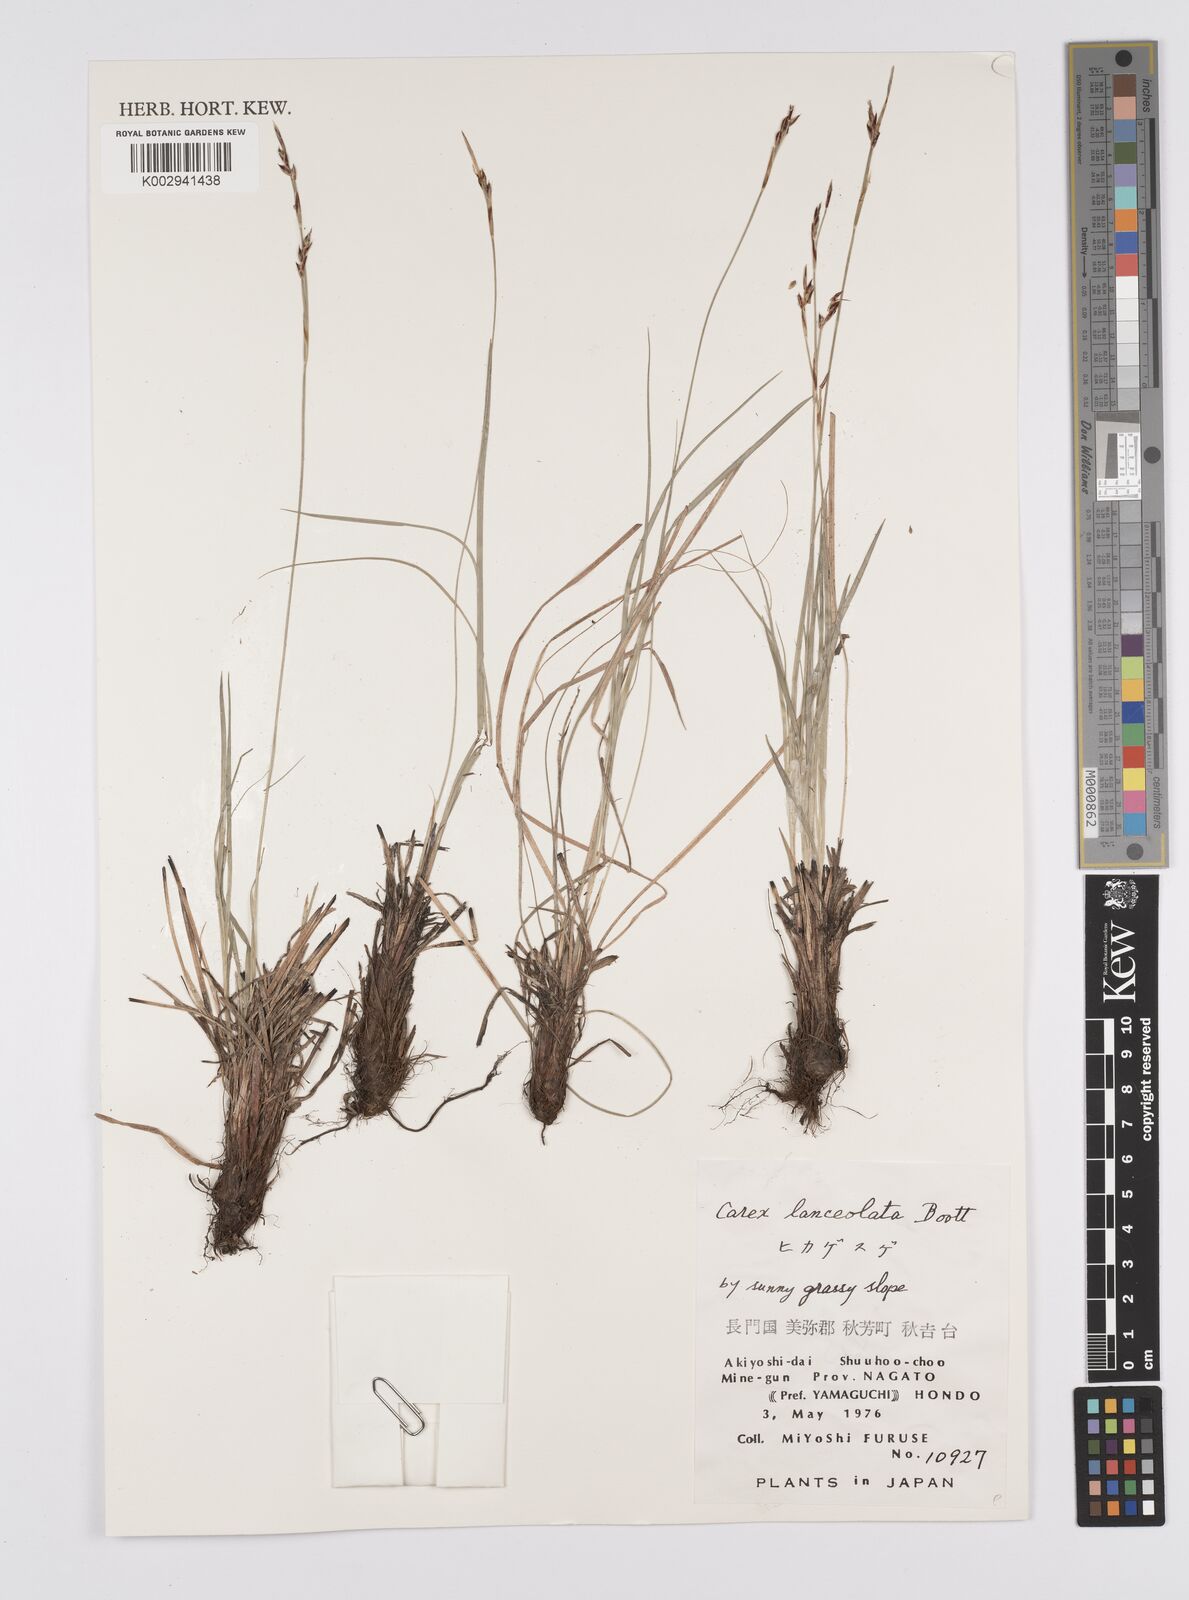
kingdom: Plantae
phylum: Tracheophyta
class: Liliopsida
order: Poales
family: Cyperaceae
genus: Carex
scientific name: Carex lanceolata
